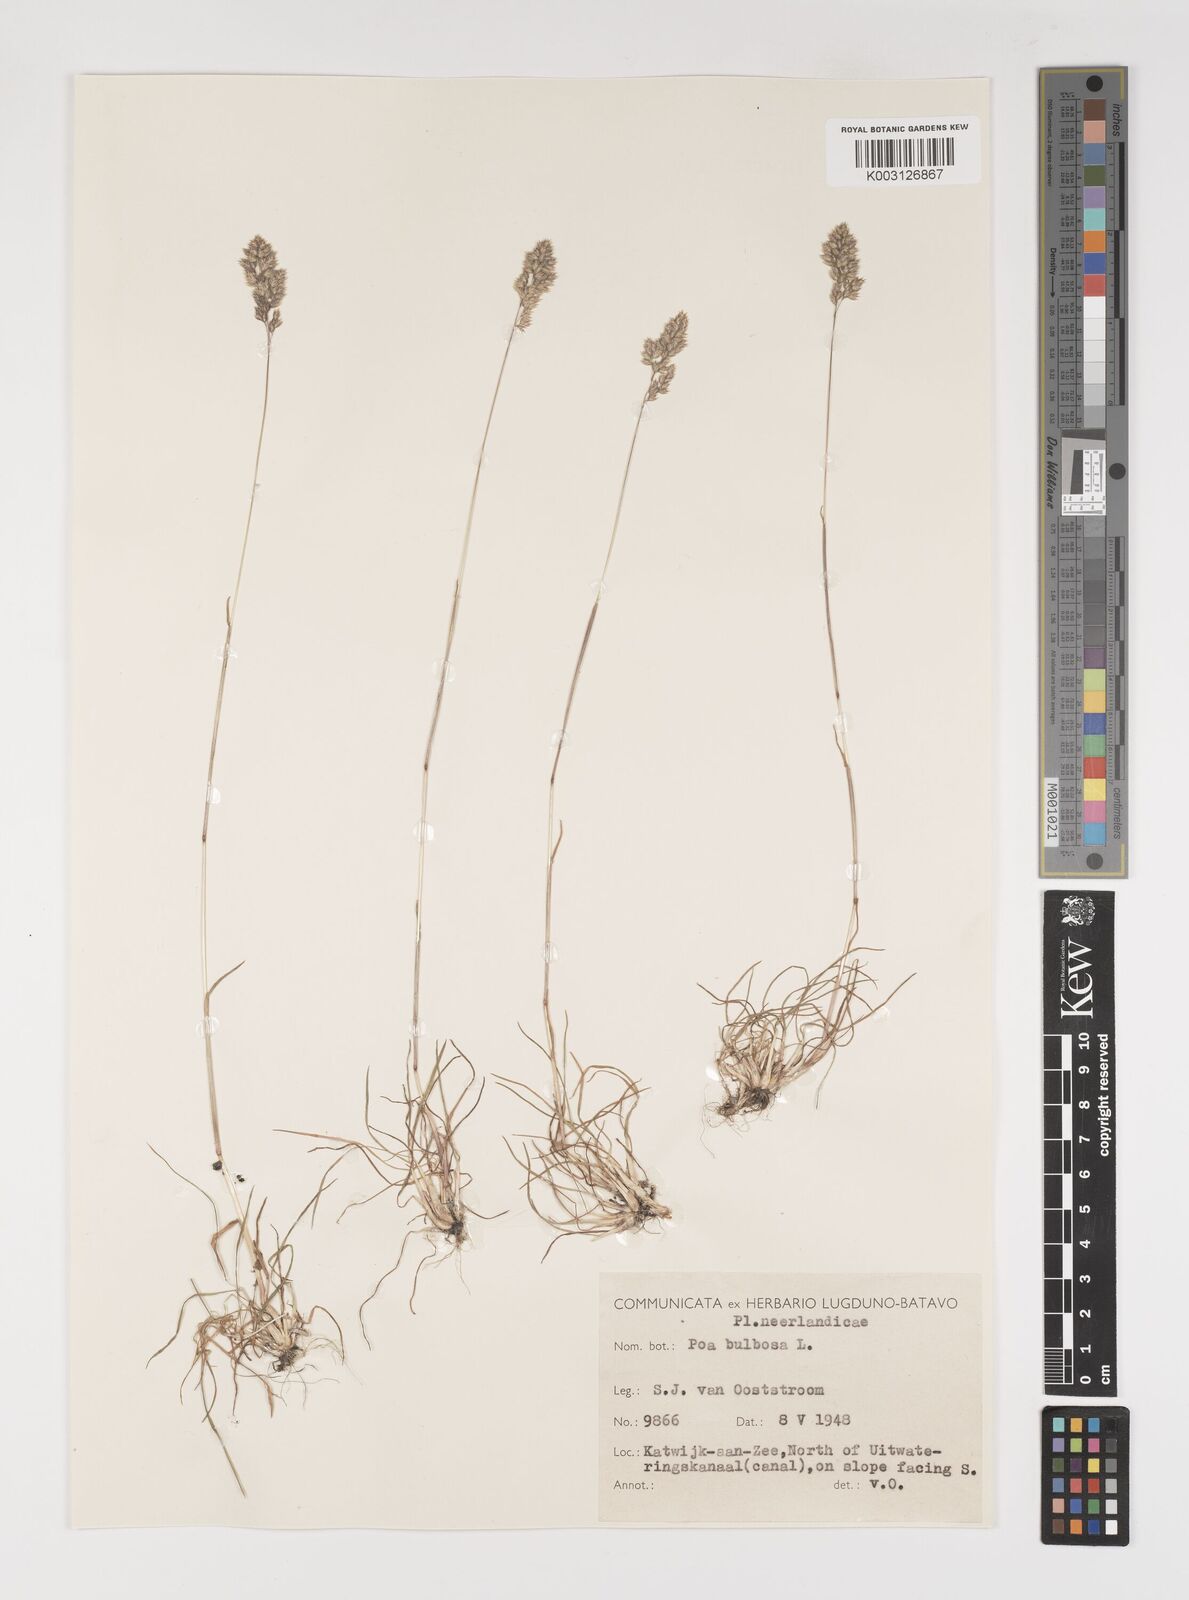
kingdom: Plantae
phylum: Tracheophyta
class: Liliopsida
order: Poales
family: Poaceae
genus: Poa
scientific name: Poa bulbosa
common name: Bulbous bluegrass
